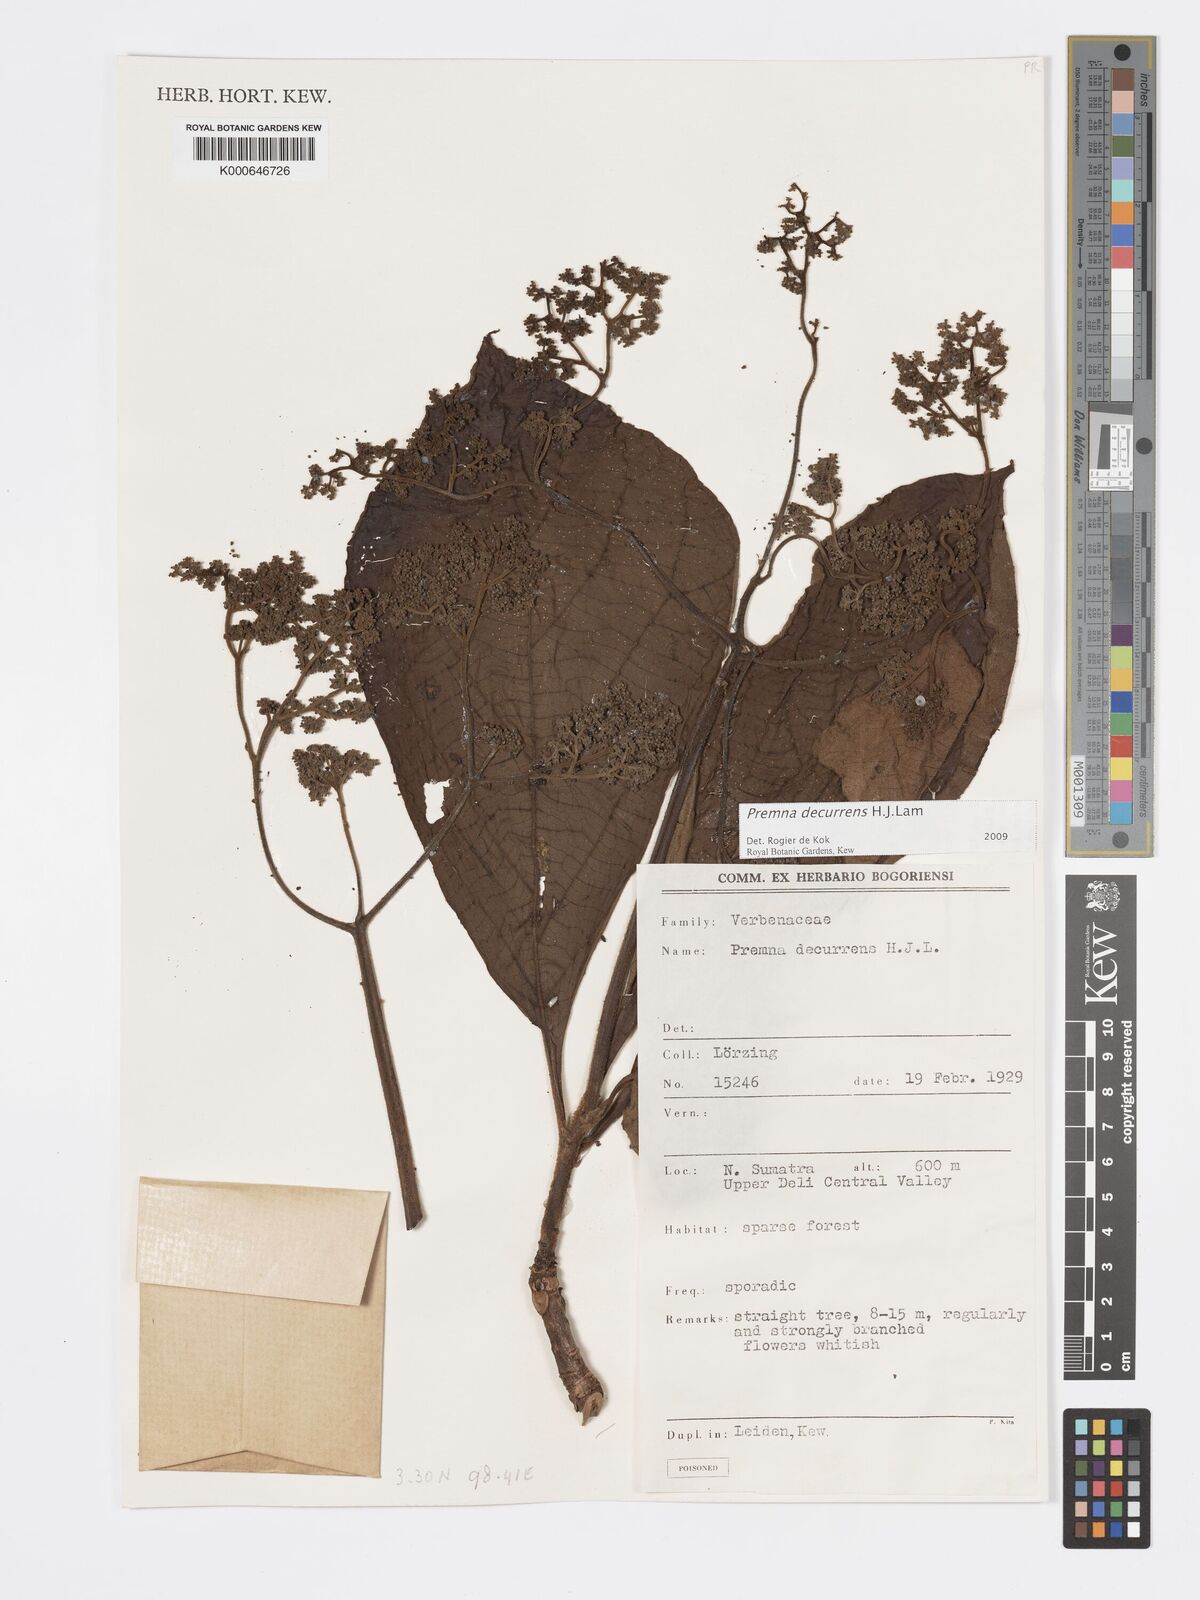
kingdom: Plantae
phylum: Tracheophyta
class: Magnoliopsida
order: Lamiales
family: Lamiaceae
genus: Premna
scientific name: Premna decurrens
